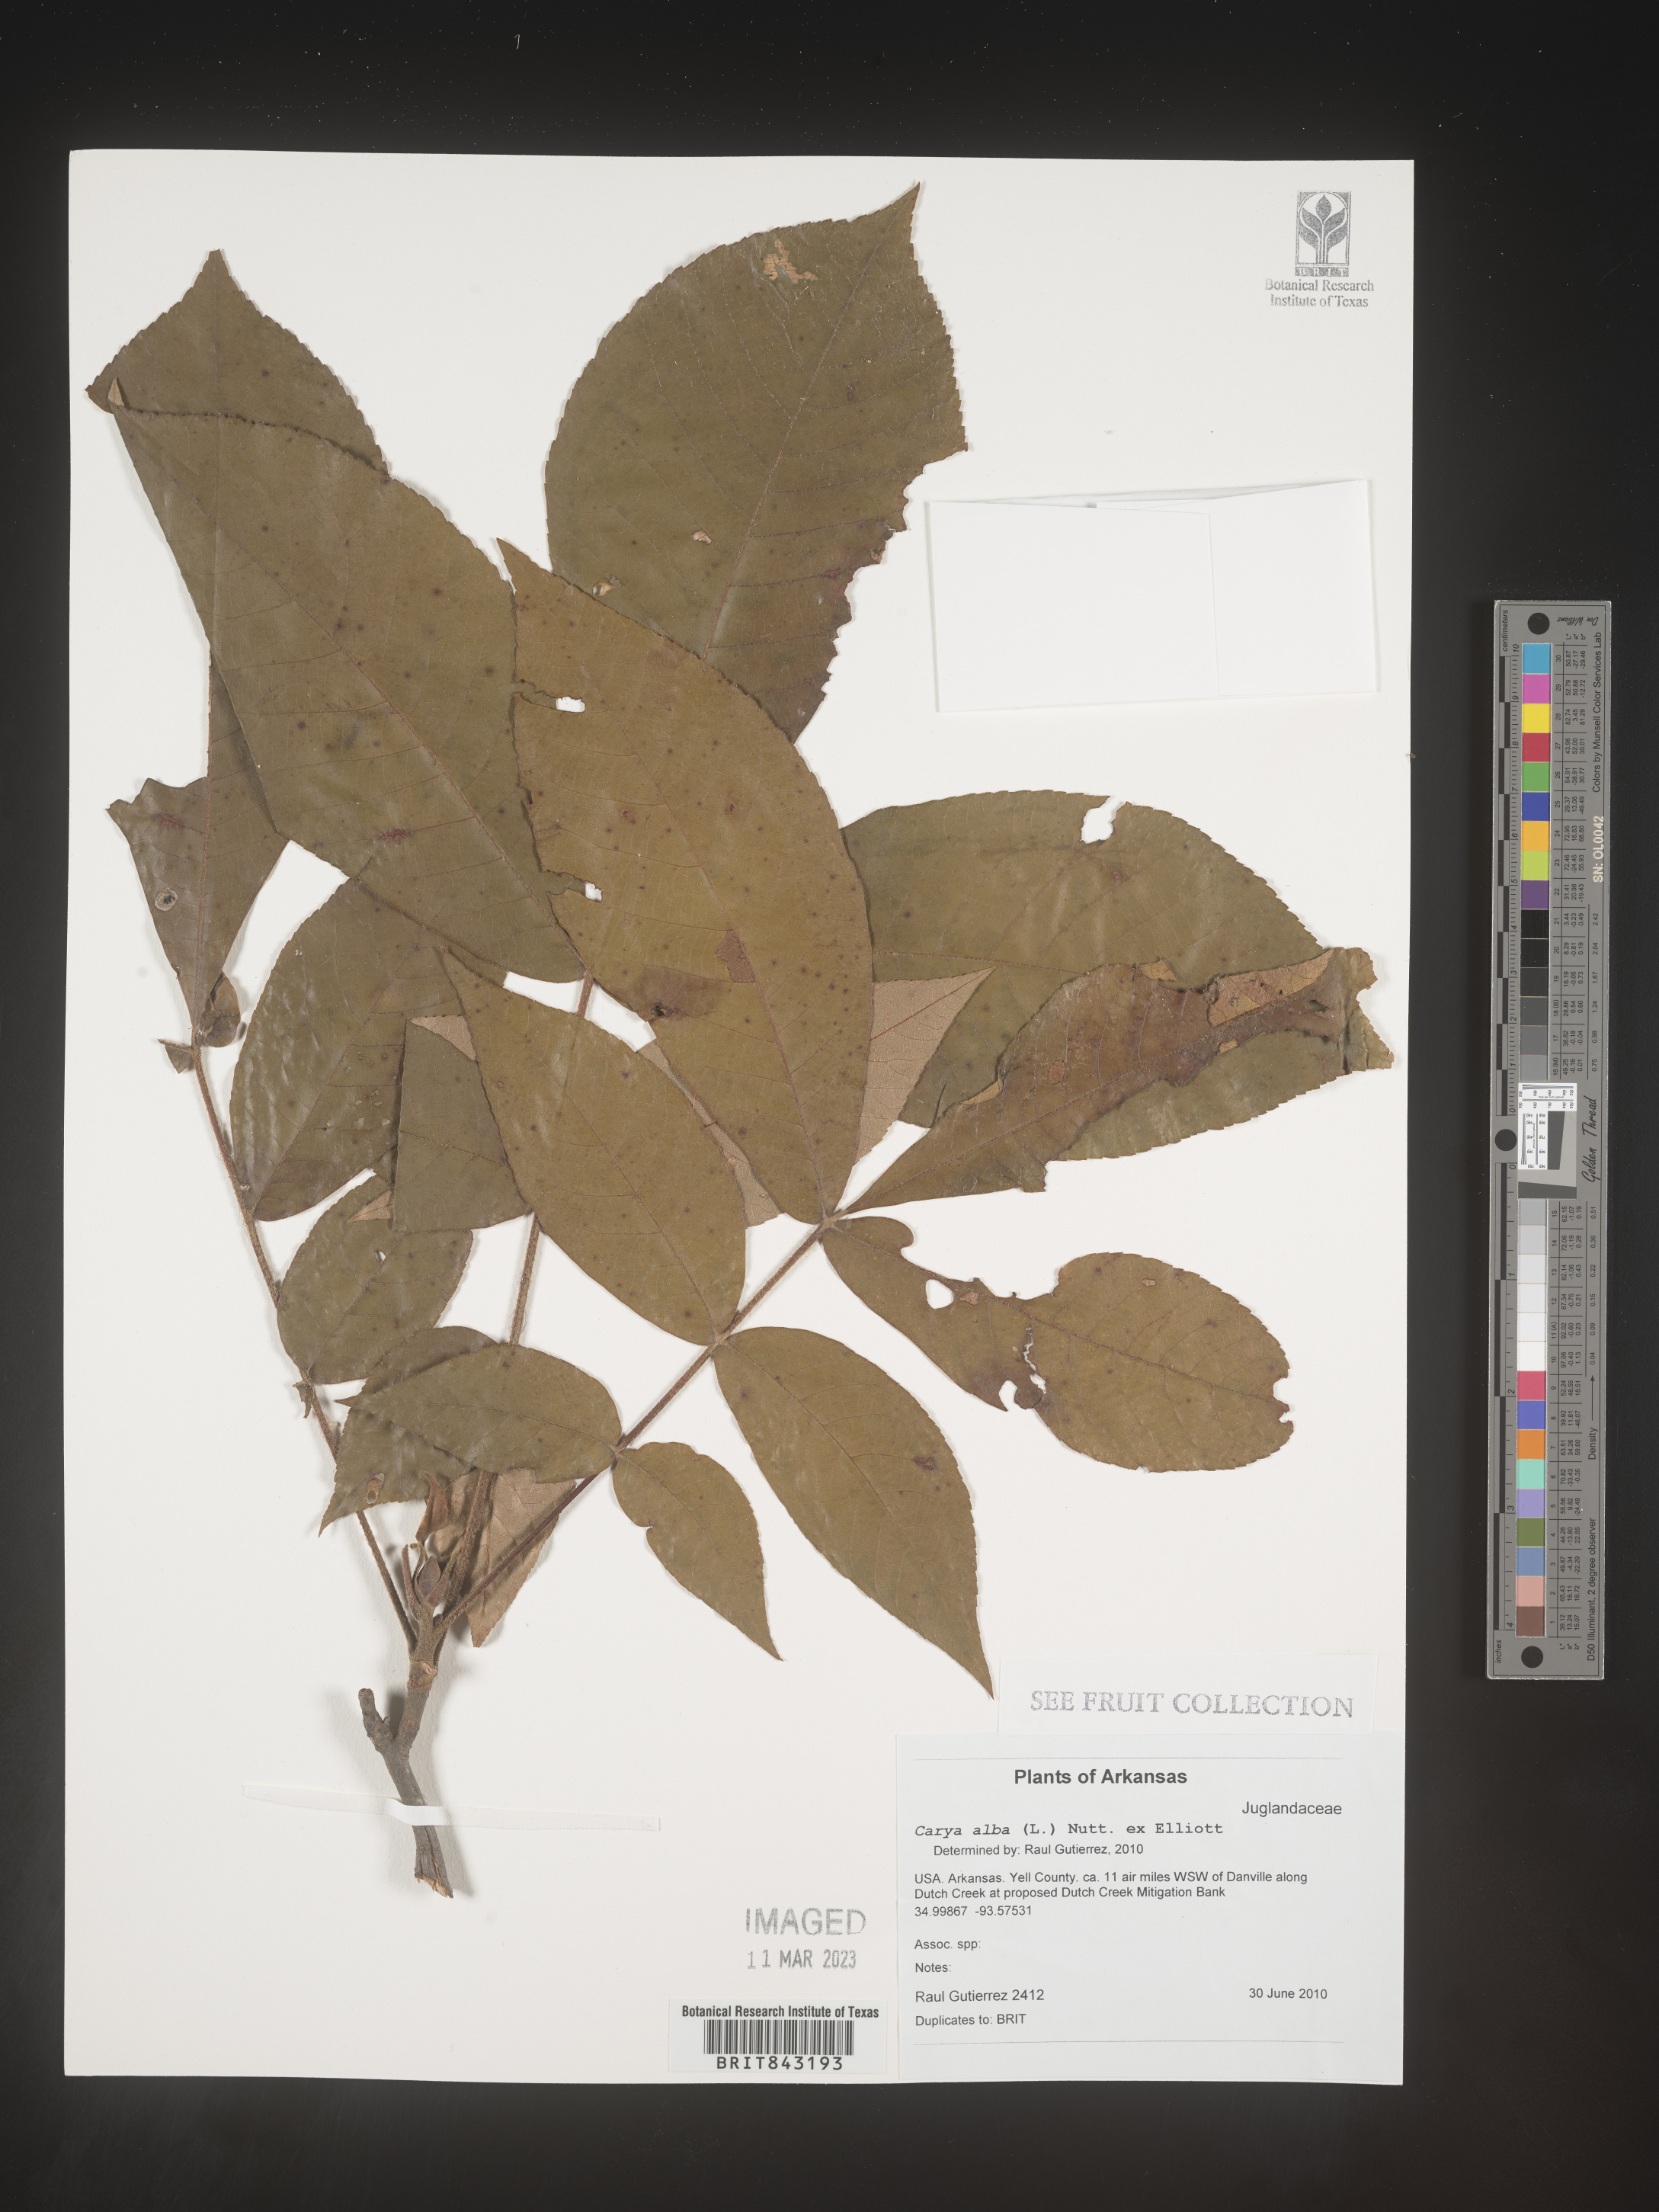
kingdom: Plantae
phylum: Tracheophyta
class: Magnoliopsida
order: Fagales
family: Juglandaceae
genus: Carya
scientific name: Carya alba
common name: Mockernut hickory
